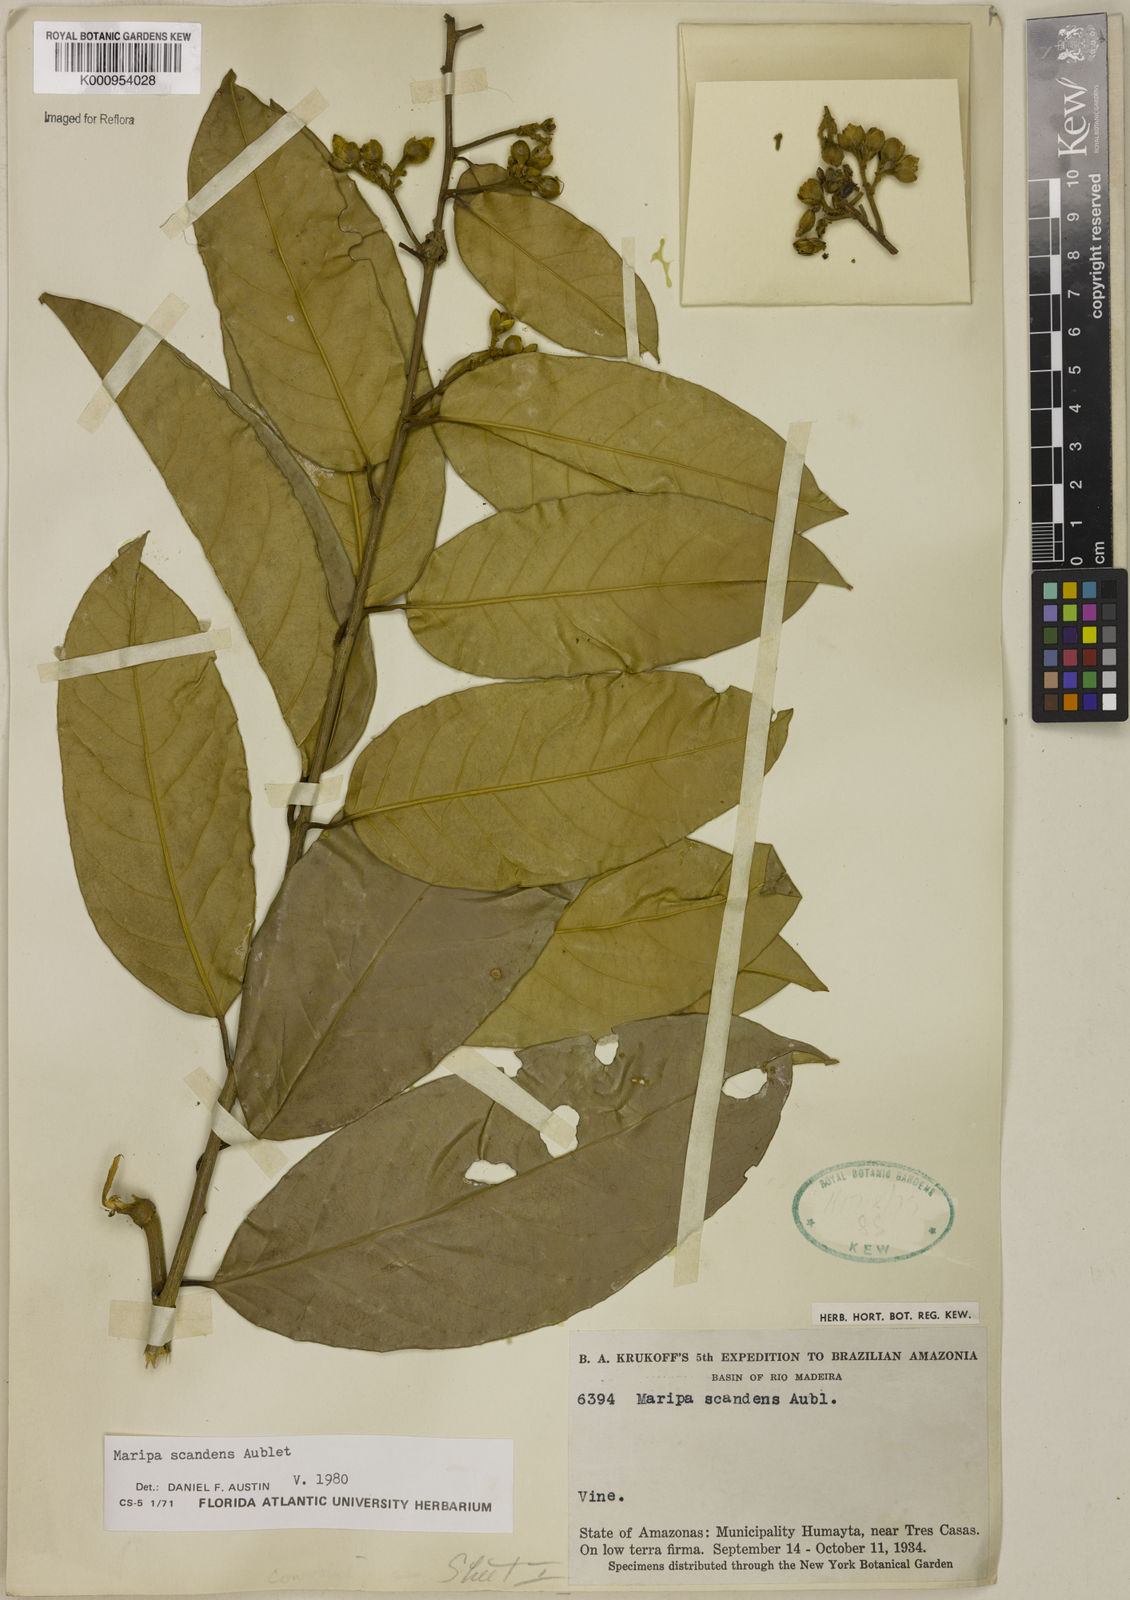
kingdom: Plantae
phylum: Tracheophyta
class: Magnoliopsida
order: Solanales
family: Convolvulaceae
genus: Maripa
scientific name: Maripa scandens
